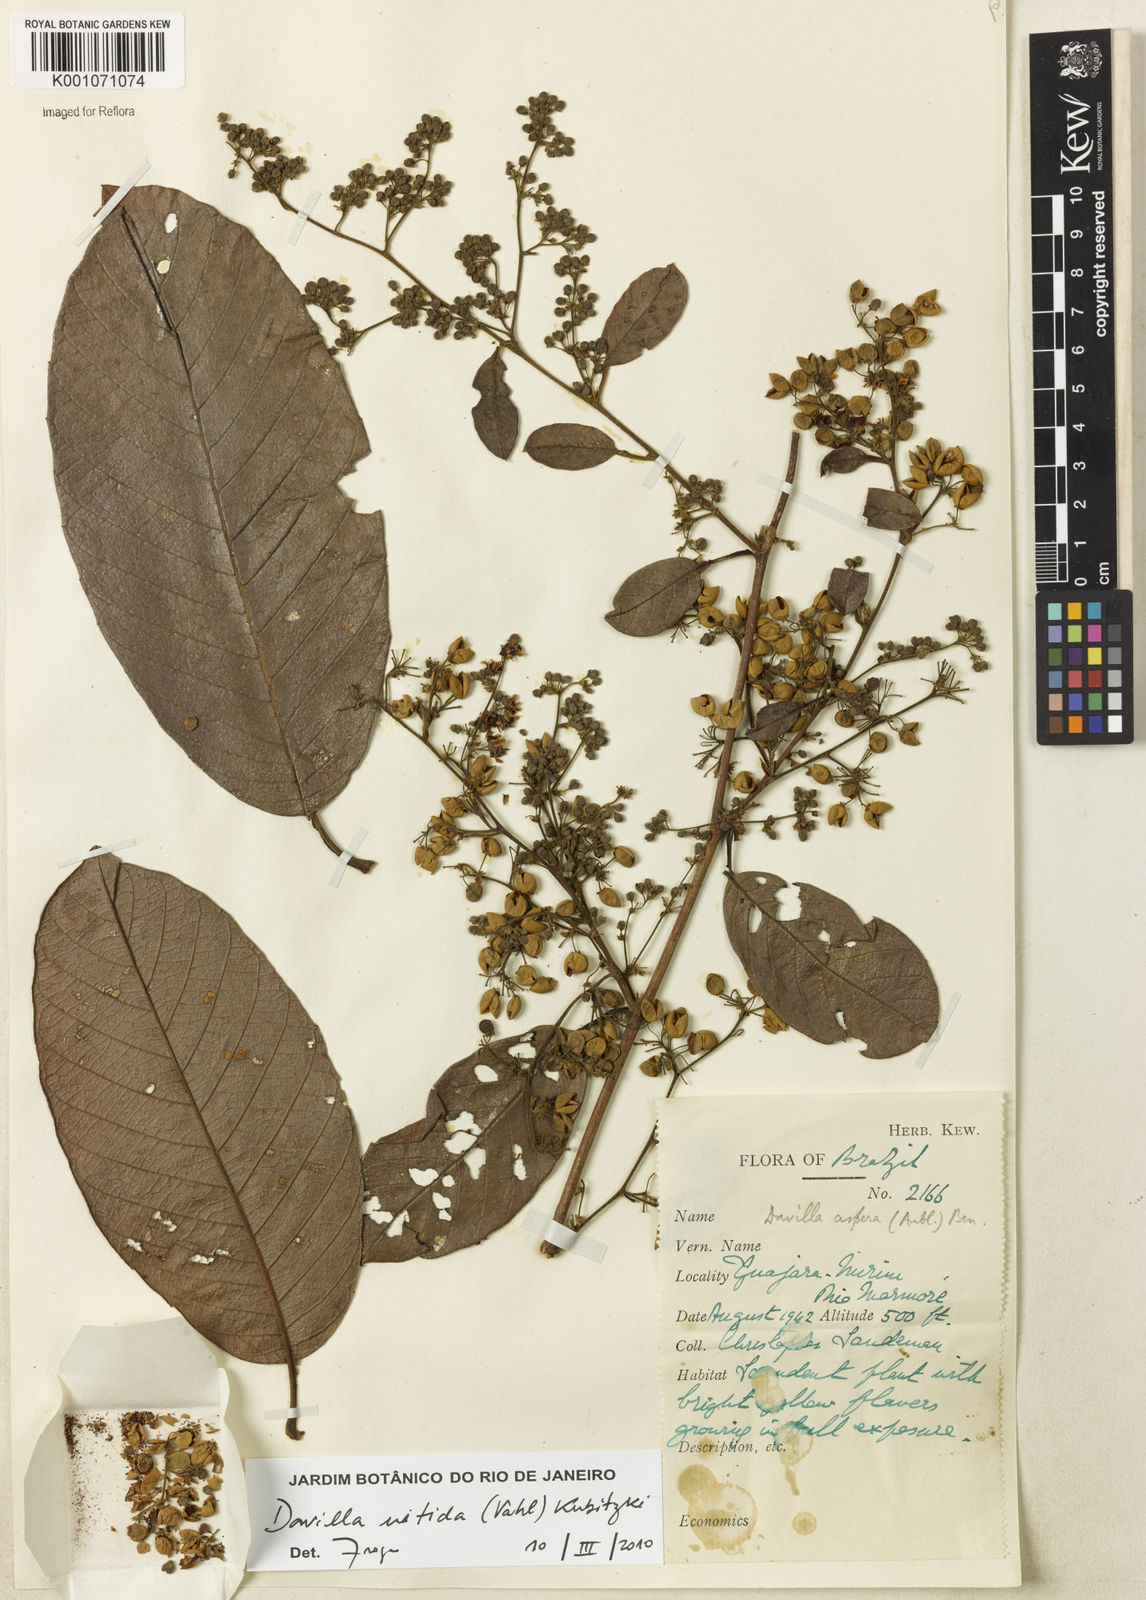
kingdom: Plantae
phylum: Tracheophyta
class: Magnoliopsida
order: Dilleniales
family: Dilleniaceae
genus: Davilla
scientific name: Davilla kunthii
